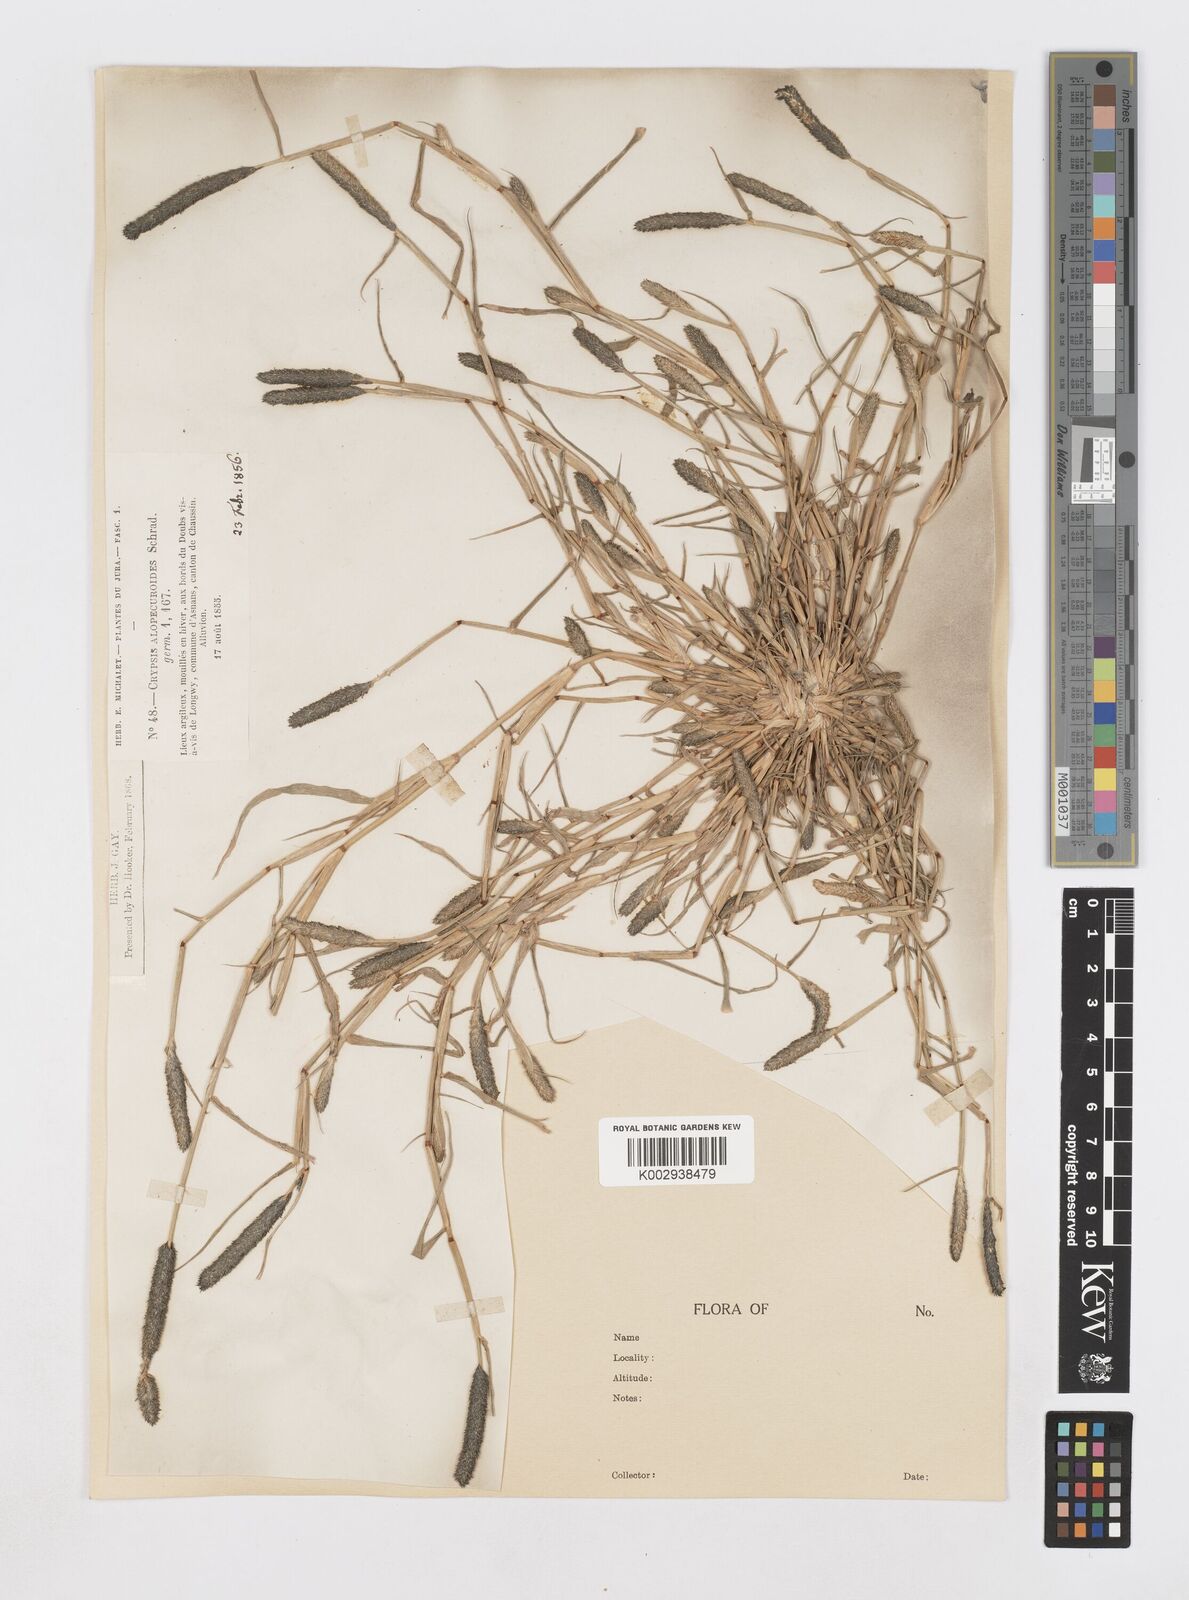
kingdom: Plantae
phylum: Tracheophyta
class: Liliopsida
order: Poales
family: Poaceae
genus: Sporobolus
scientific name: Sporobolus alopecuroides
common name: Foxtail pricklegrass
